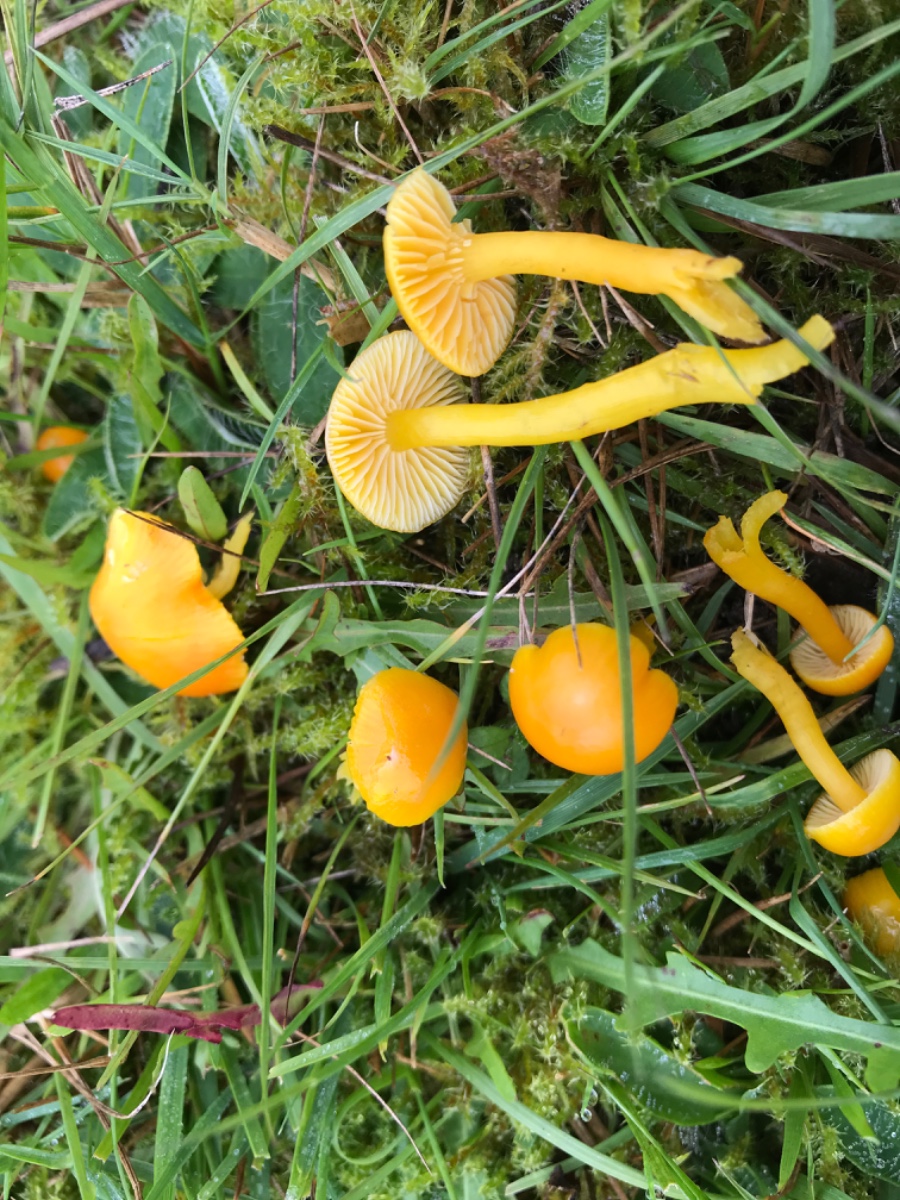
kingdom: Fungi
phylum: Basidiomycota
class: Agaricomycetes
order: Agaricales
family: Hygrophoraceae
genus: Hygrocybe
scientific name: Hygrocybe ceracea
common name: voksgul vokshat
